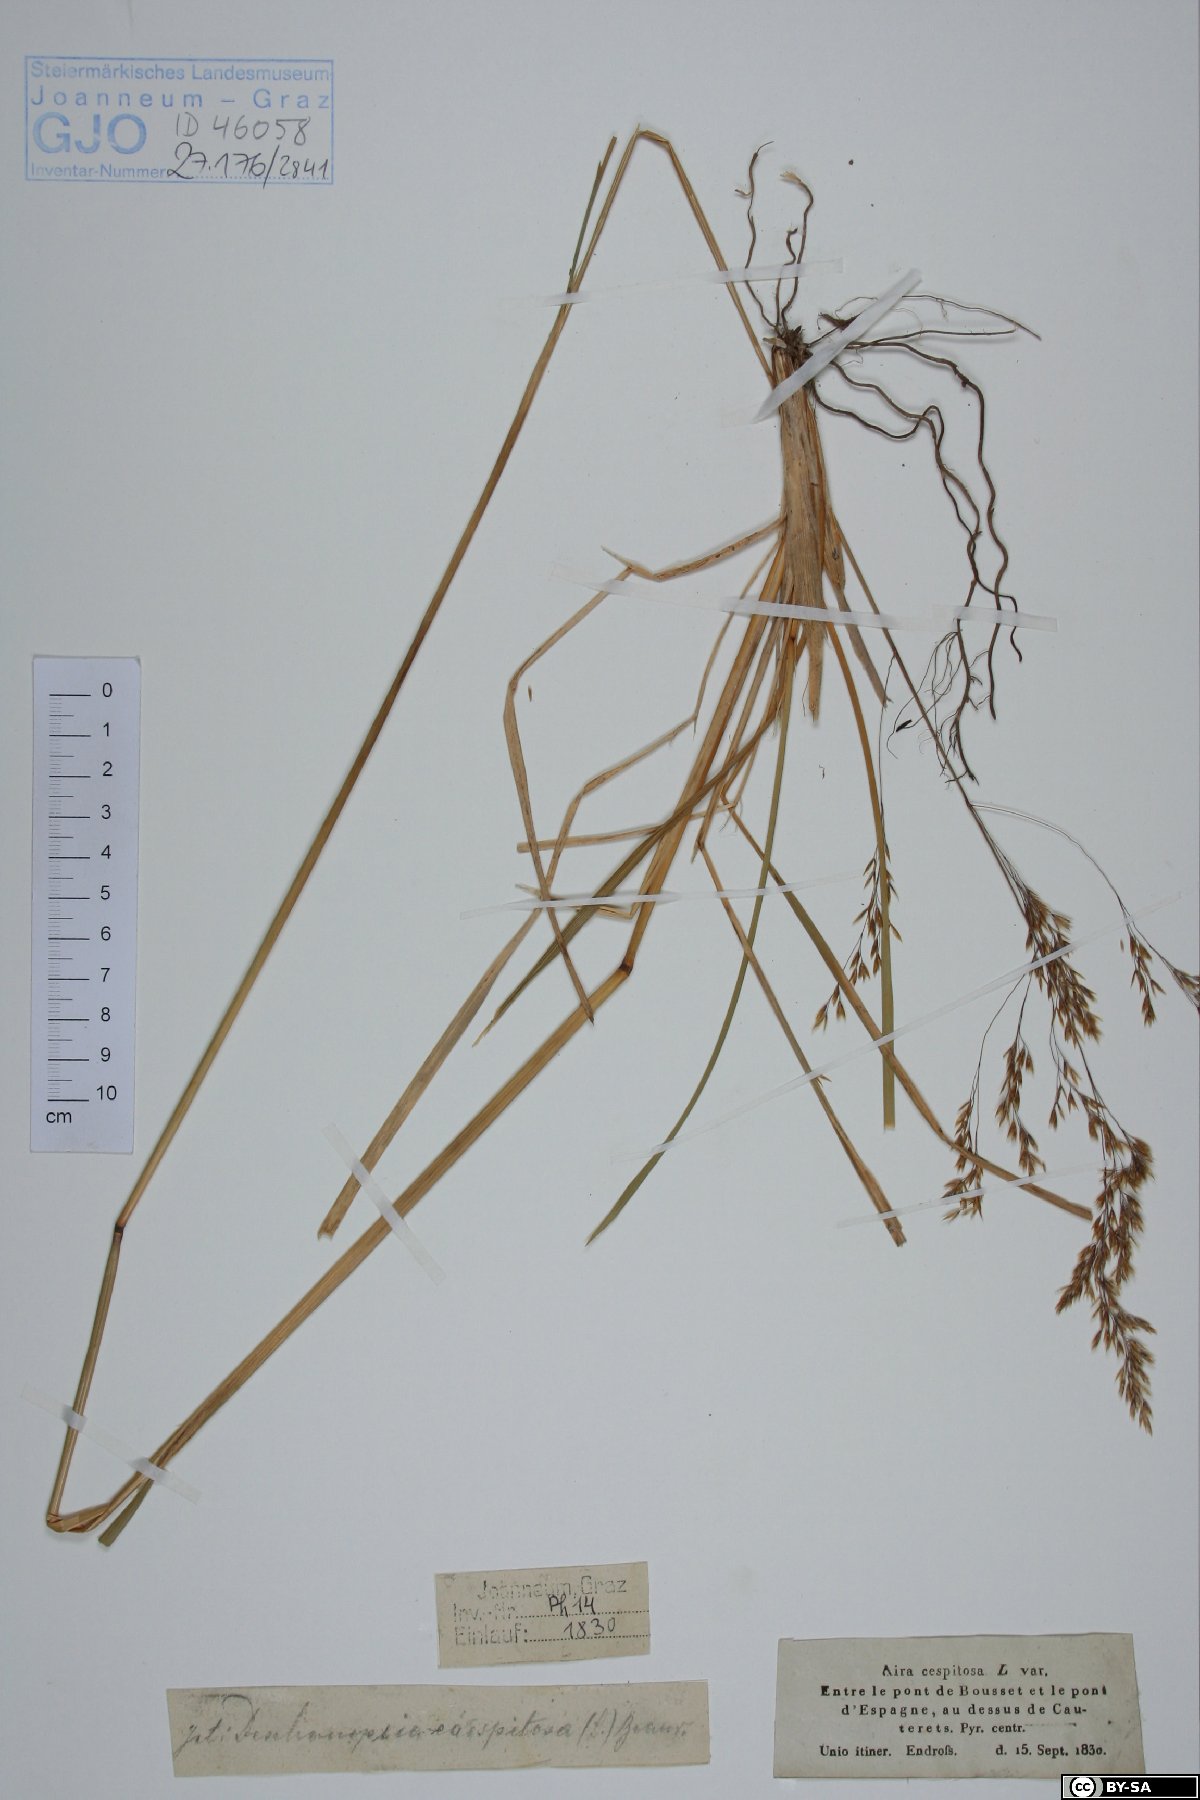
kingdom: Plantae
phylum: Tracheophyta
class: Liliopsida
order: Poales
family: Poaceae
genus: Deschampsia
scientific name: Deschampsia cespitosa
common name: Tufted hair-grass
